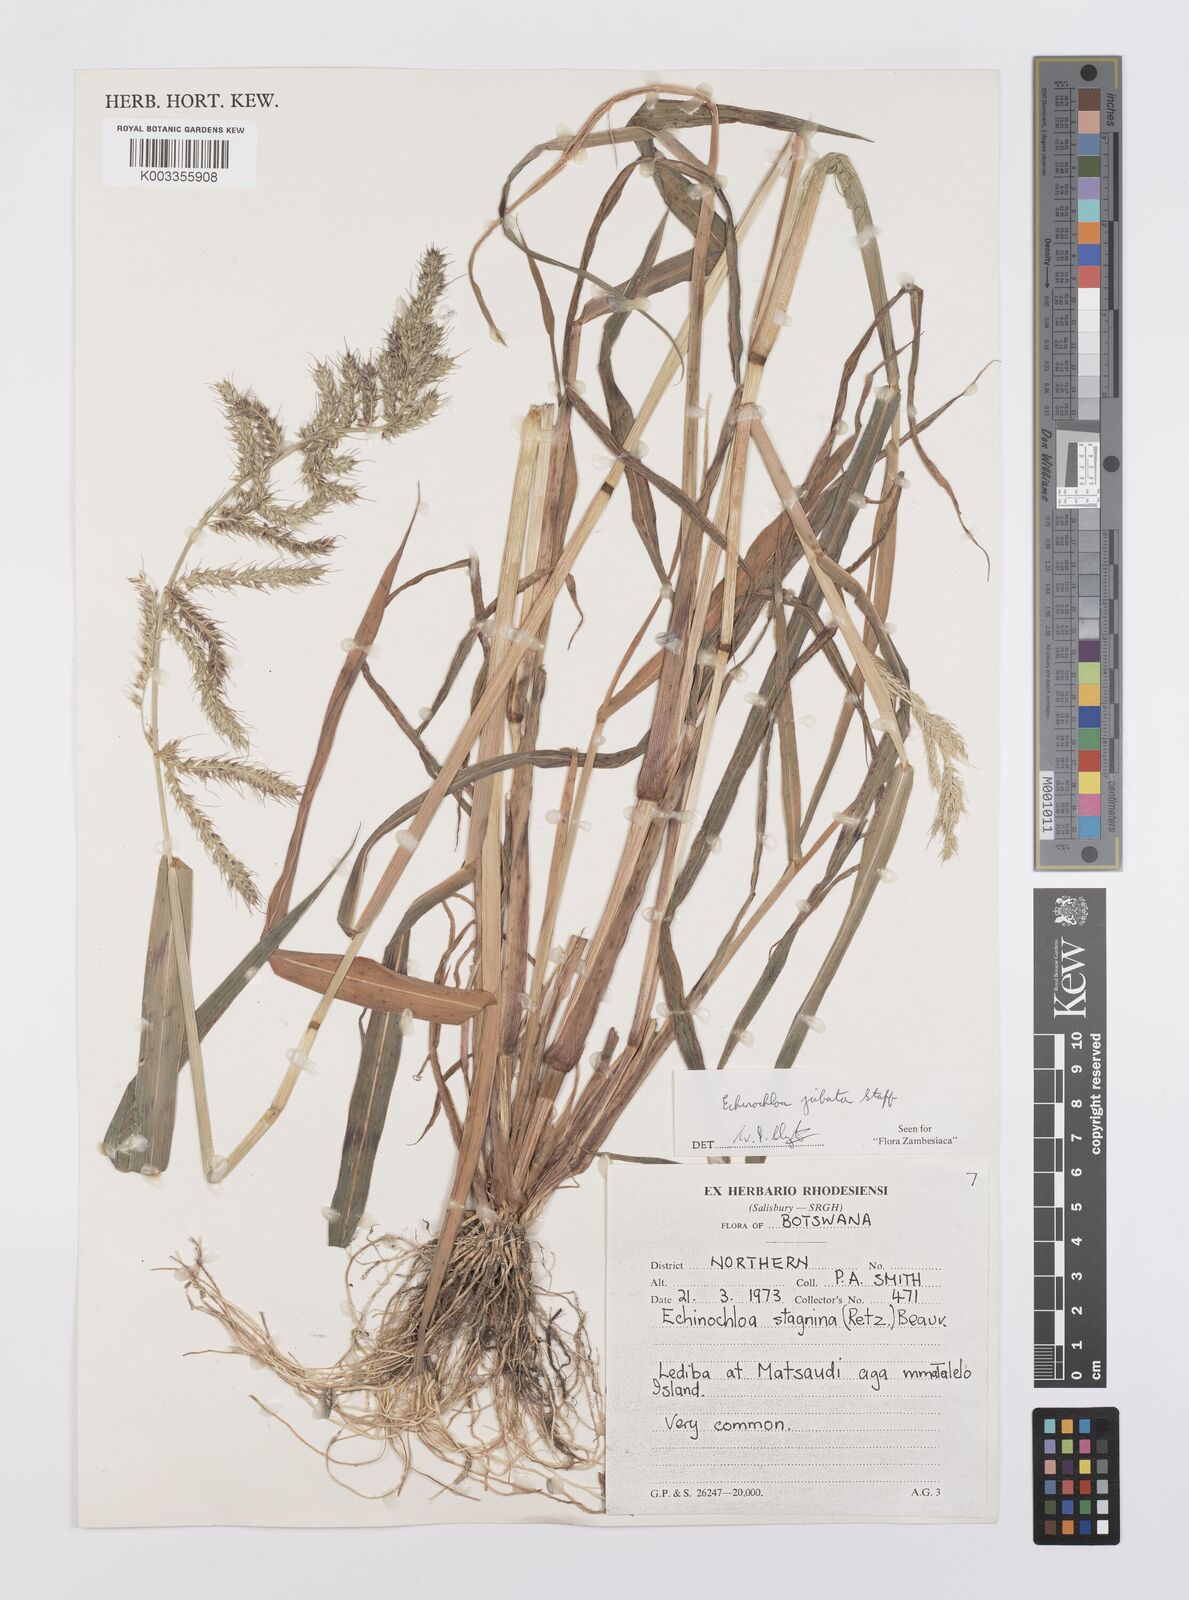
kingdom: Plantae
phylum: Tracheophyta
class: Liliopsida
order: Poales
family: Poaceae
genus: Echinochloa
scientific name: Echinochloa jubata
